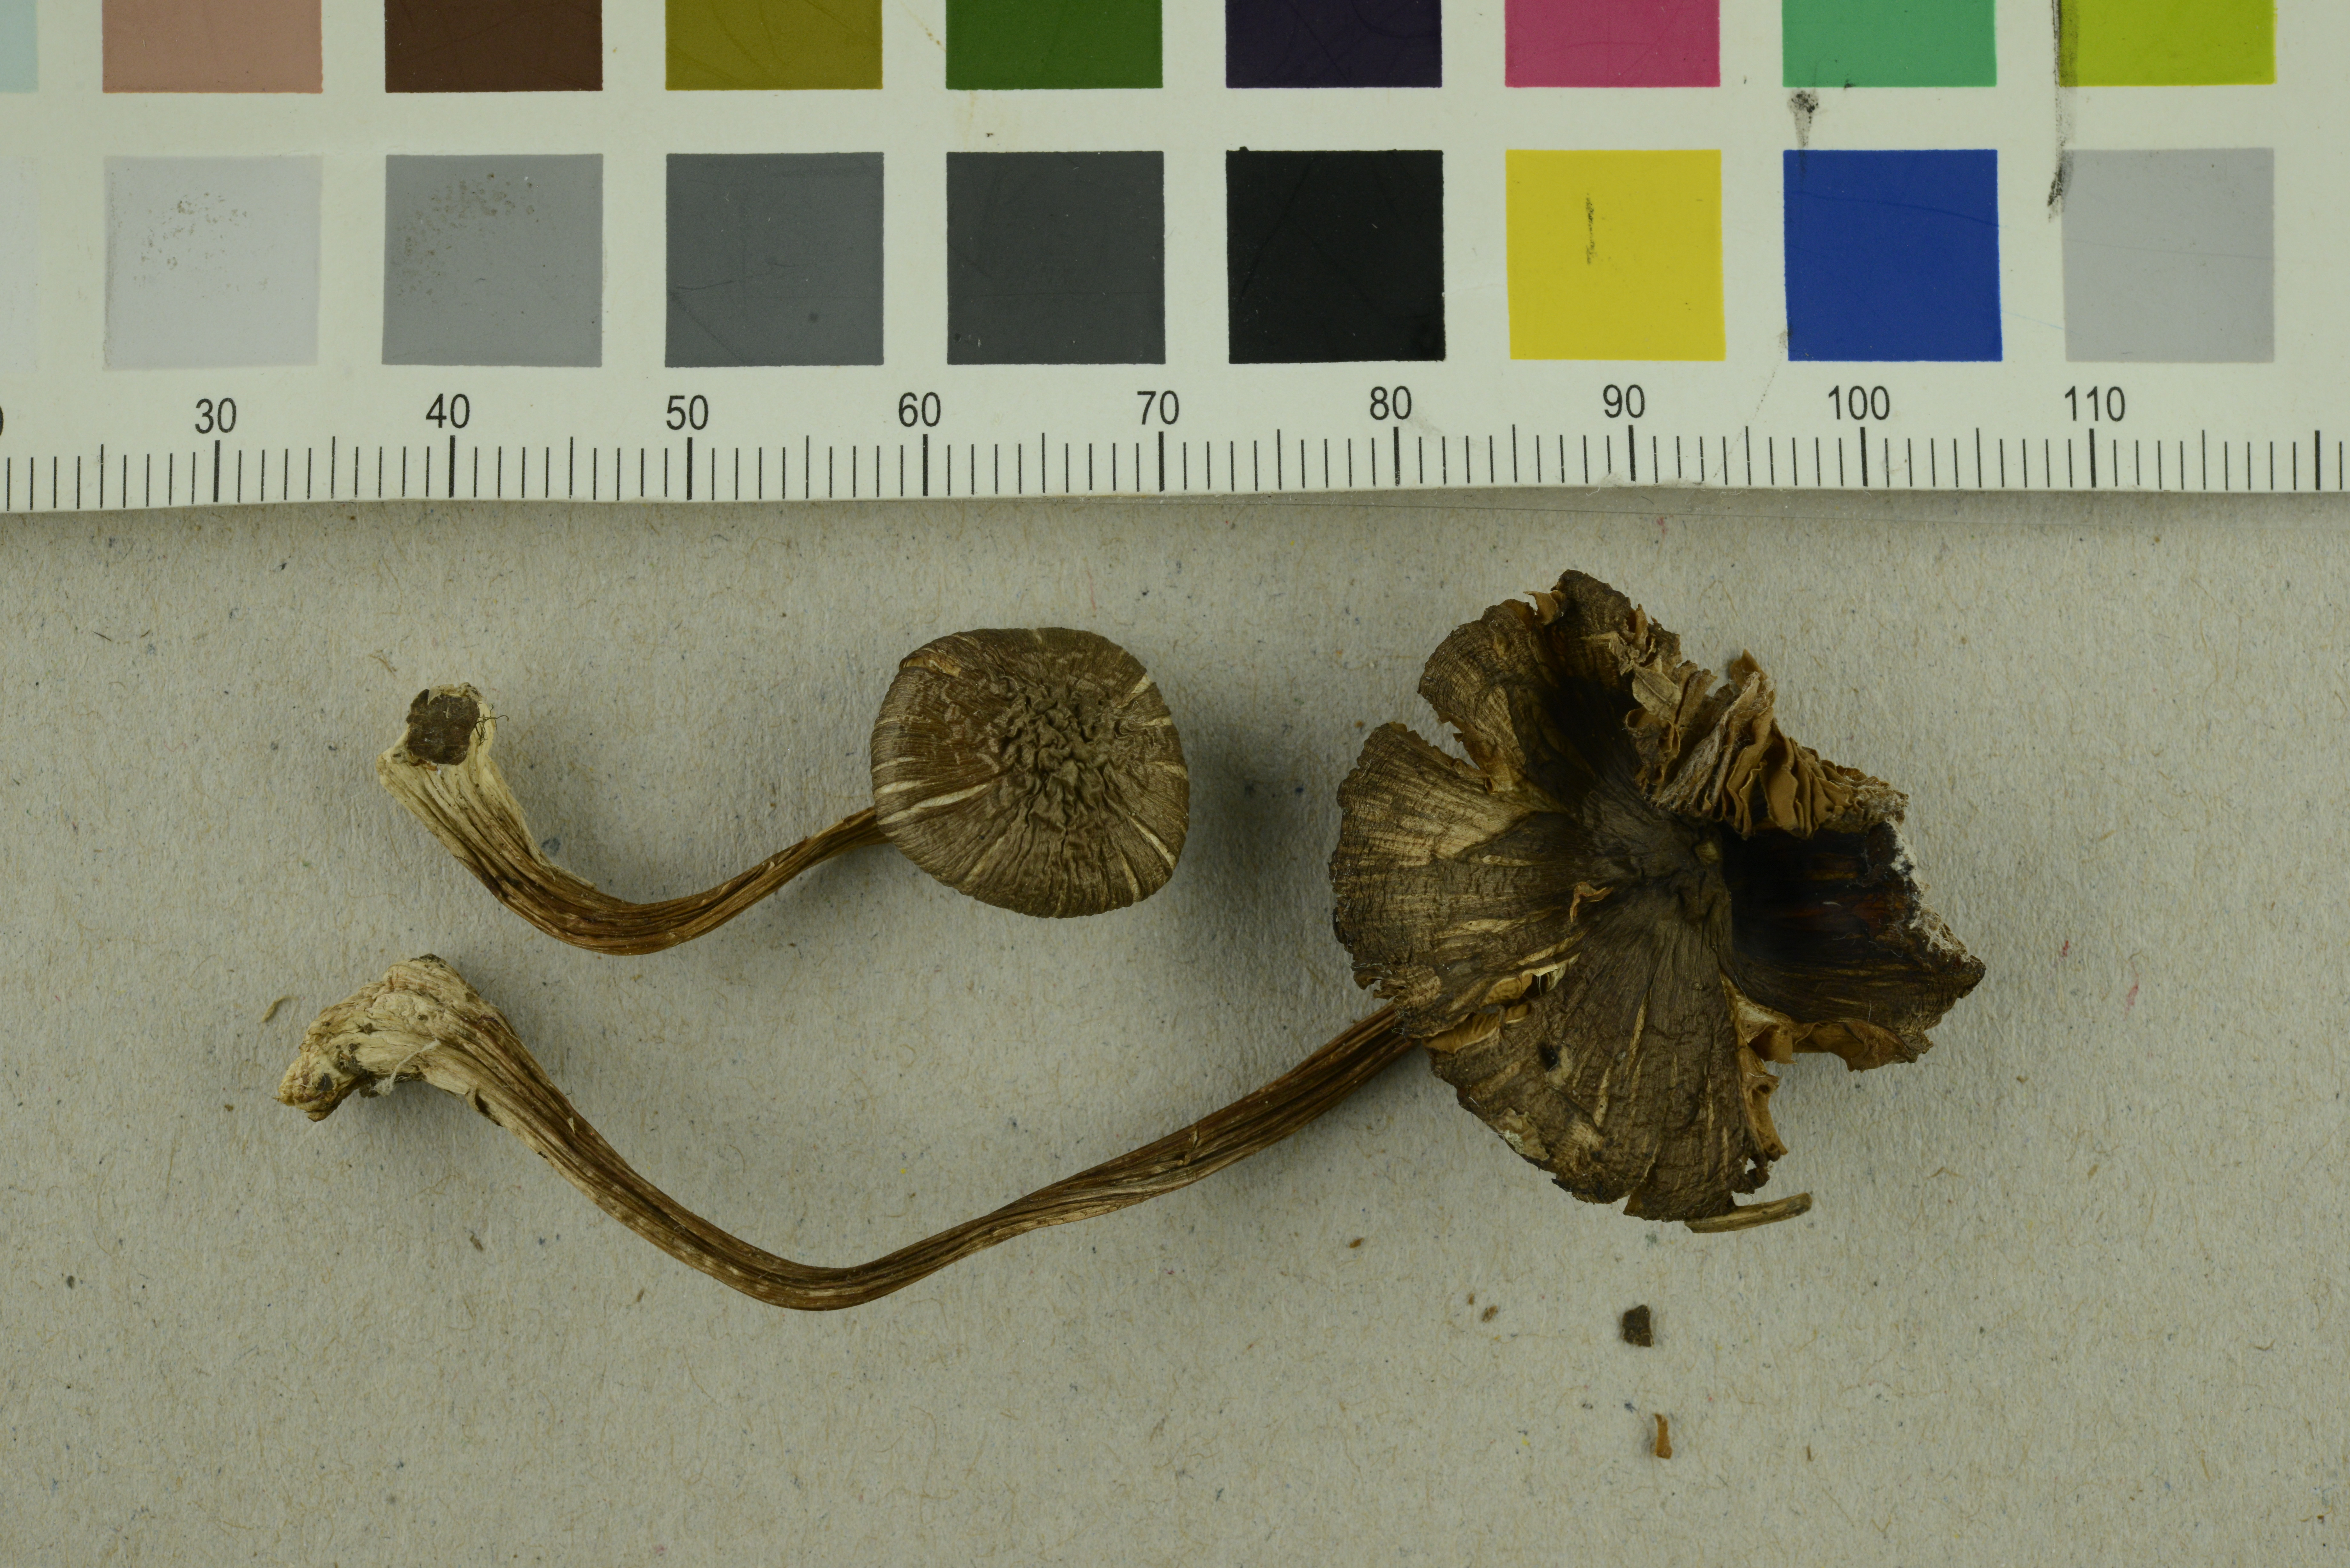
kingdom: Fungi
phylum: Basidiomycota
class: Agaricomycetes
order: Agaricales
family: Inocybaceae
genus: Inocybe
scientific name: Inocybe napipes
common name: Bulbous fibrecap
